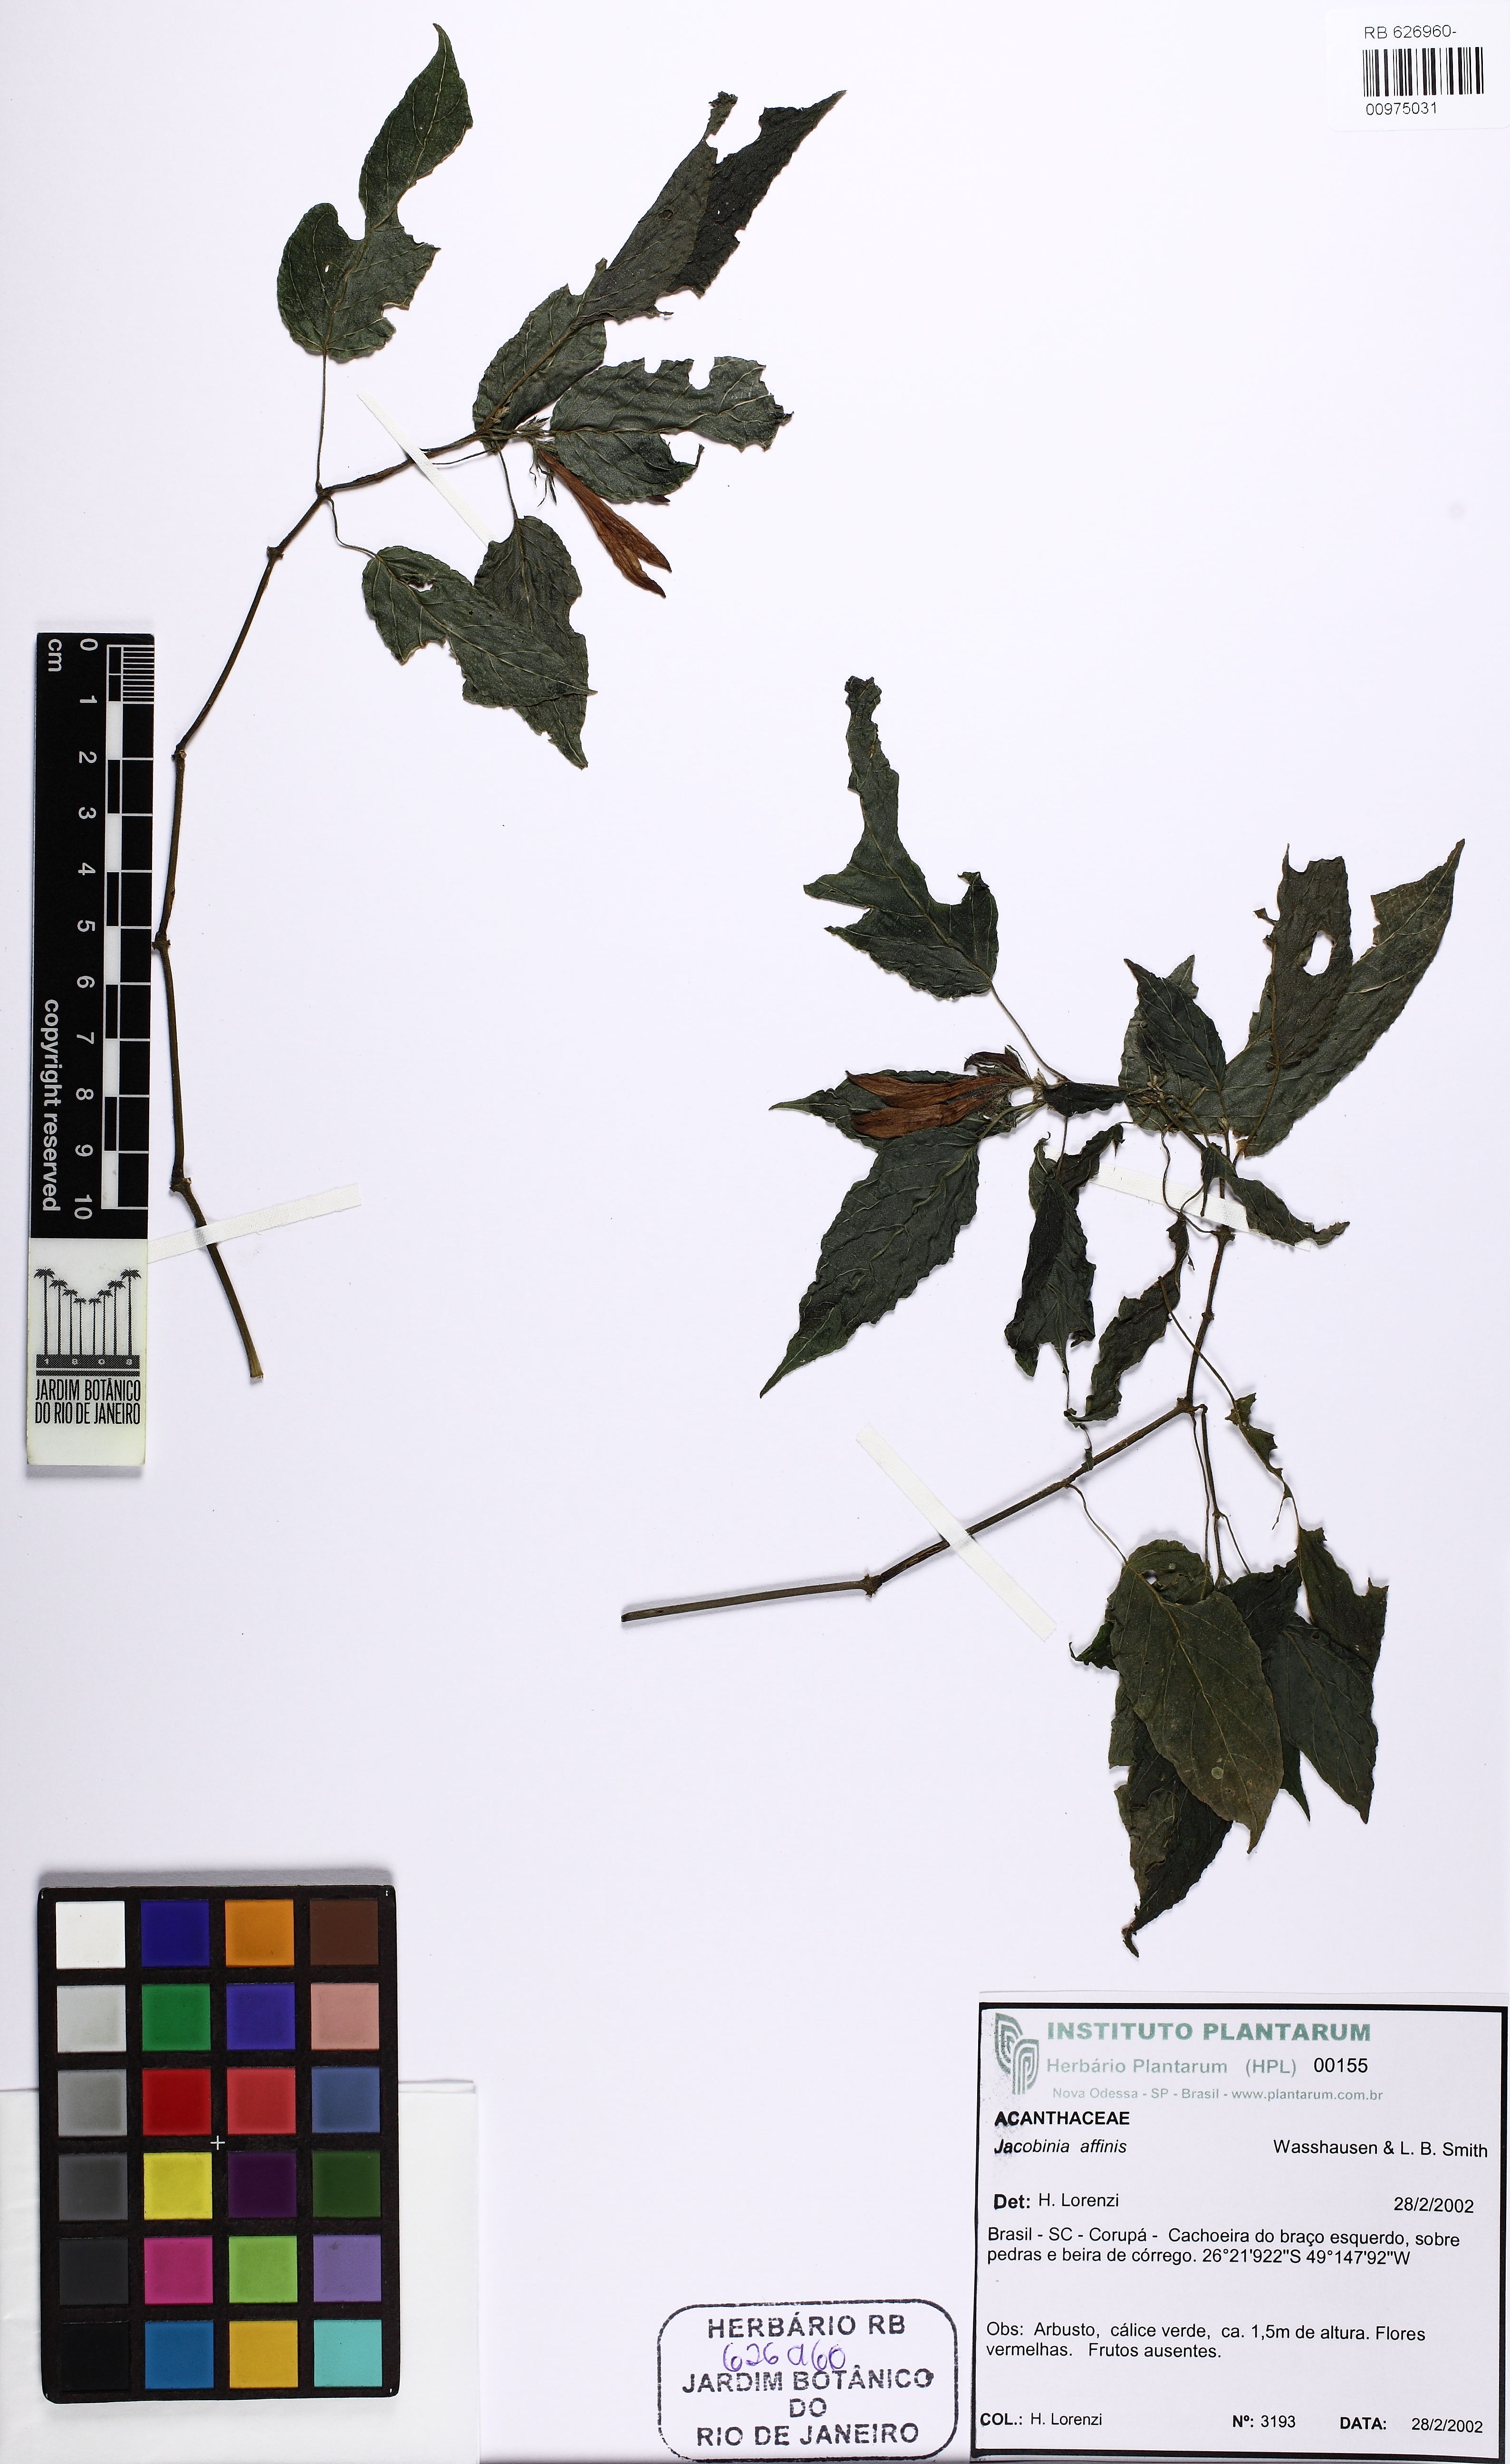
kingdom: Plantae
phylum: Tracheophyta
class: Magnoliopsida
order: Lamiales
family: Acanthaceae
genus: Justicia
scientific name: Justicia brasiliana
